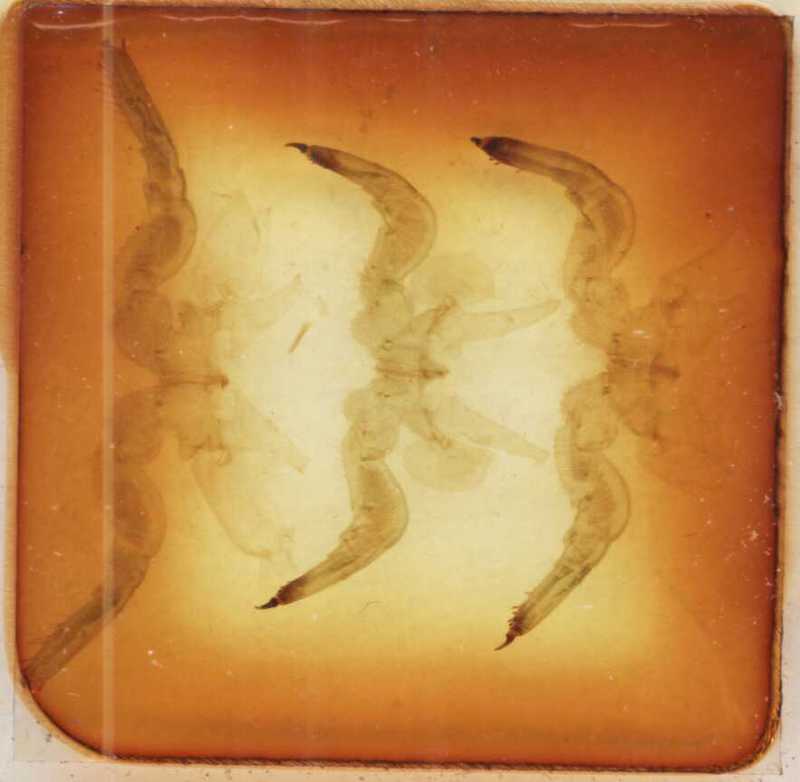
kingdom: Animalia
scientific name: Animalia
